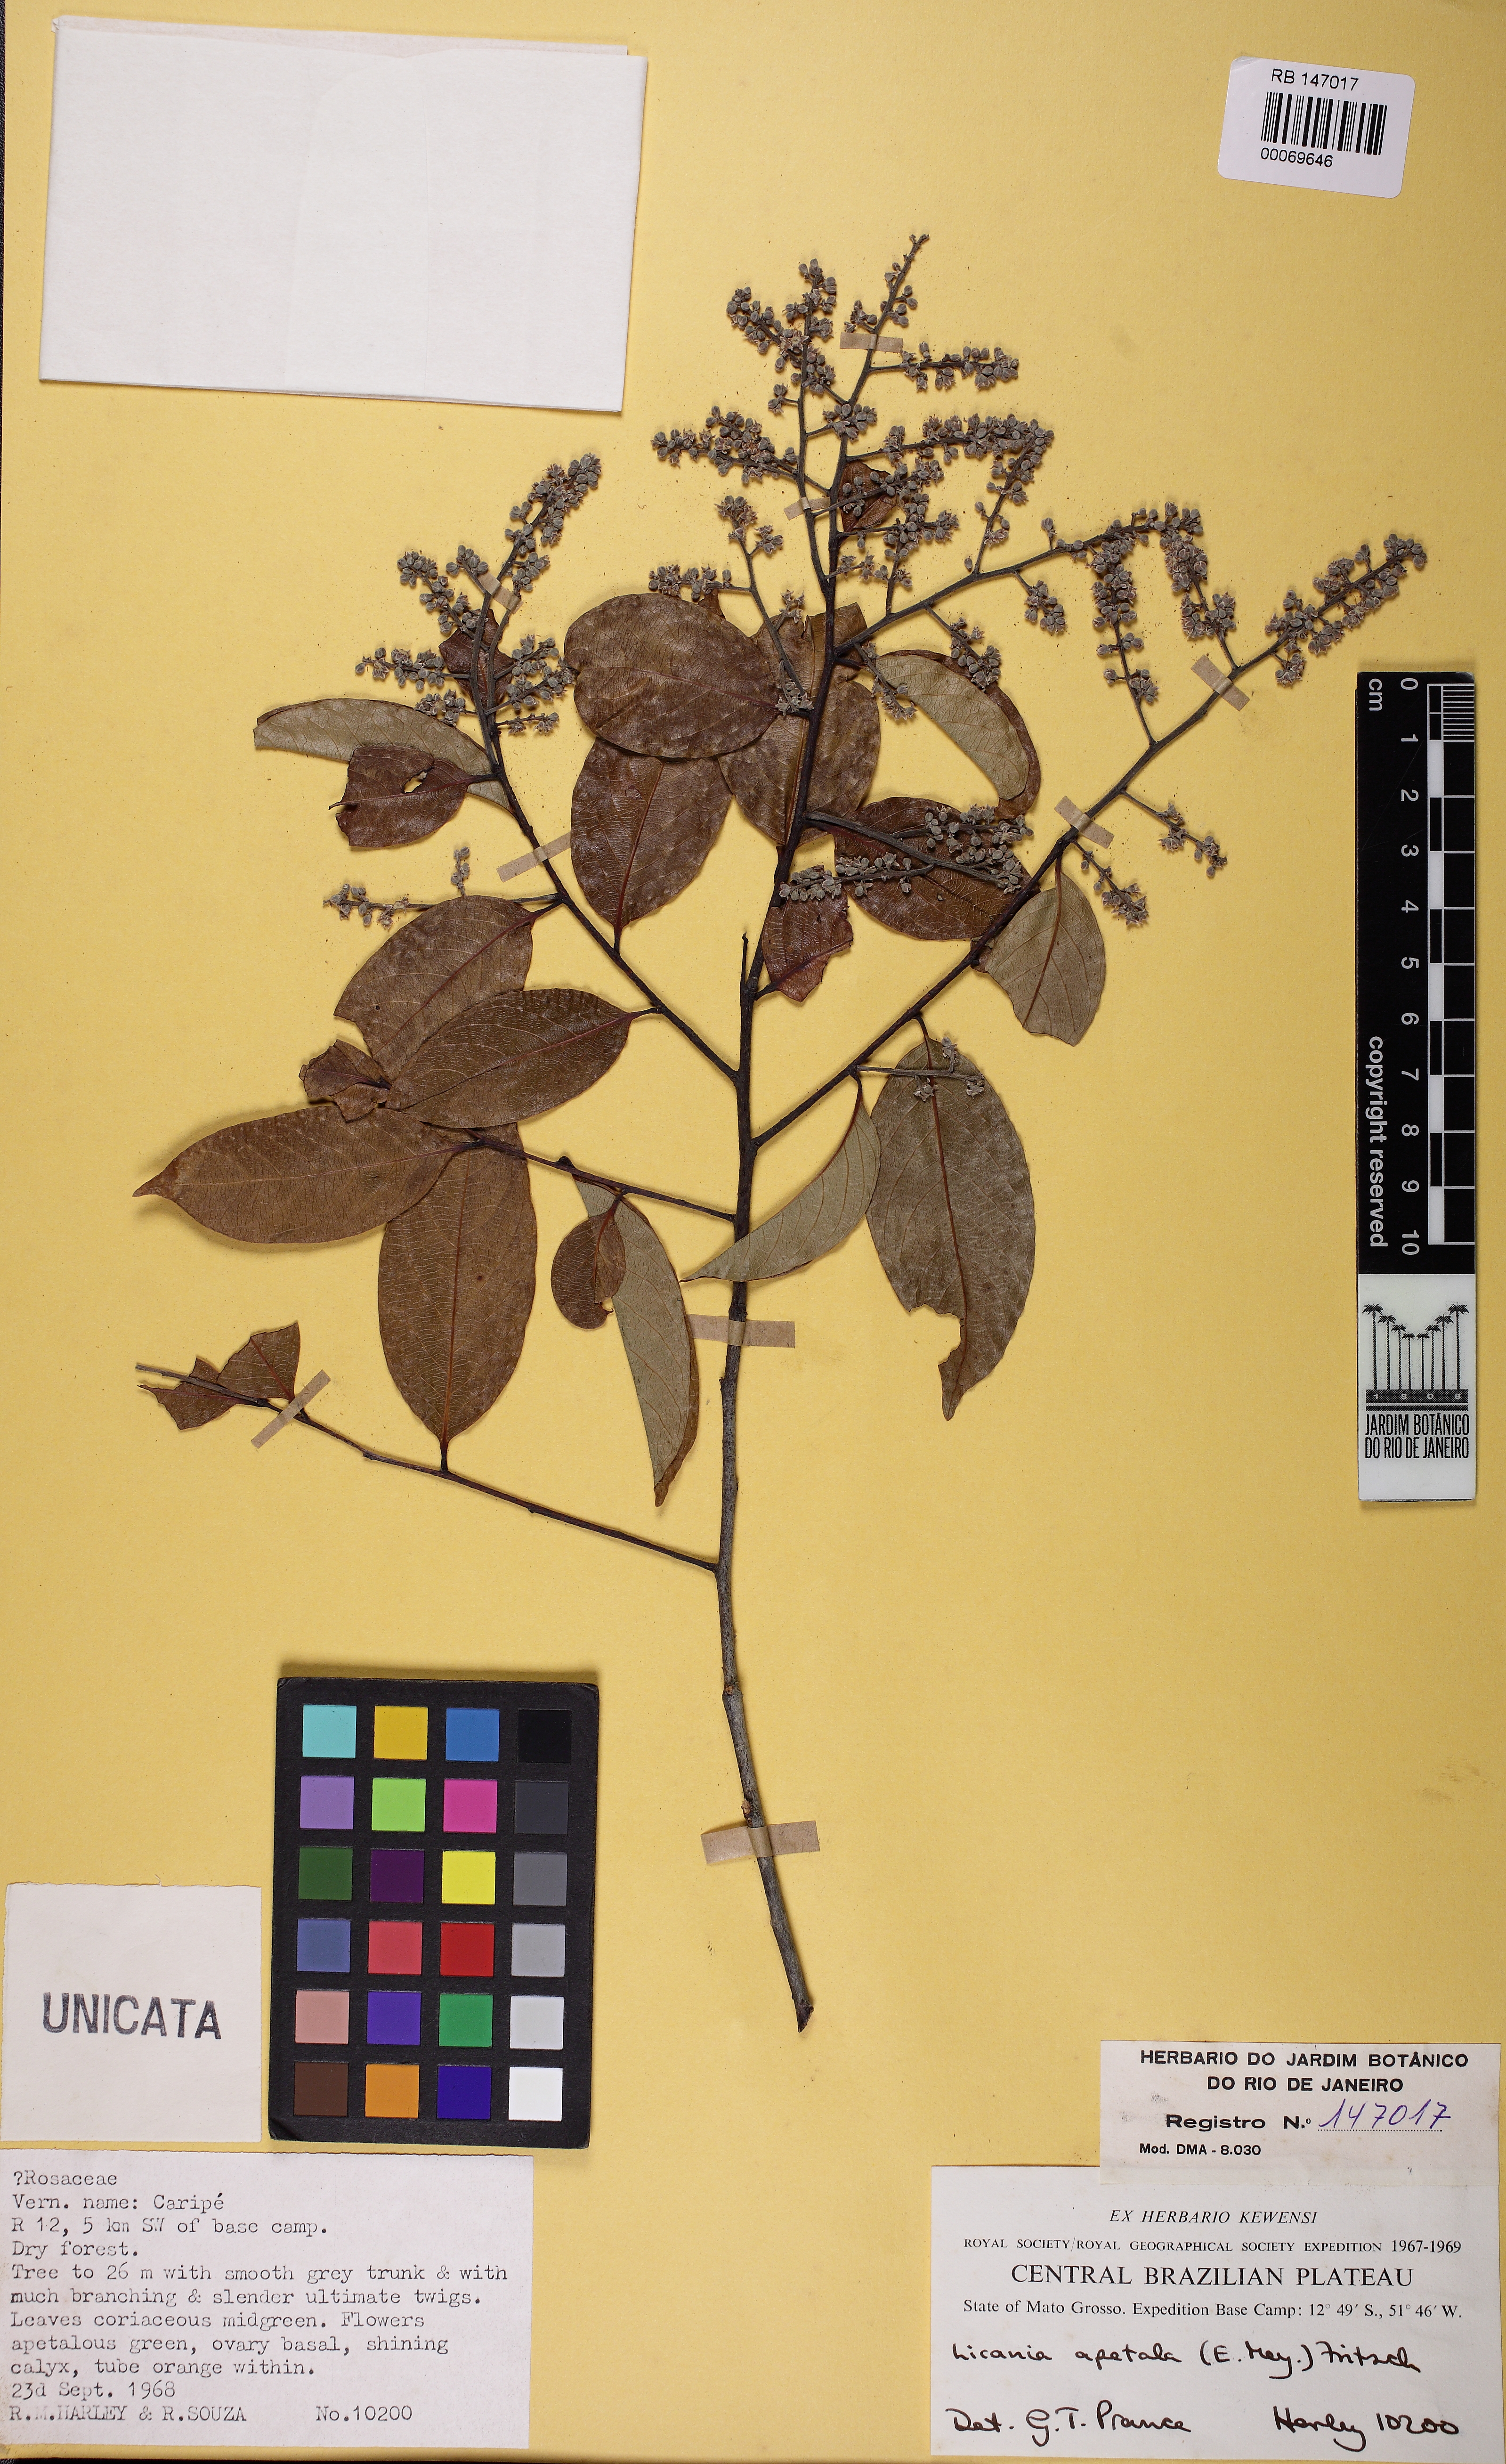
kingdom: Plantae
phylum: Tracheophyta
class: Magnoliopsida
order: Malpighiales
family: Chrysobalanaceae
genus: Leptobalanus
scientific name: Leptobalanus apetalus
